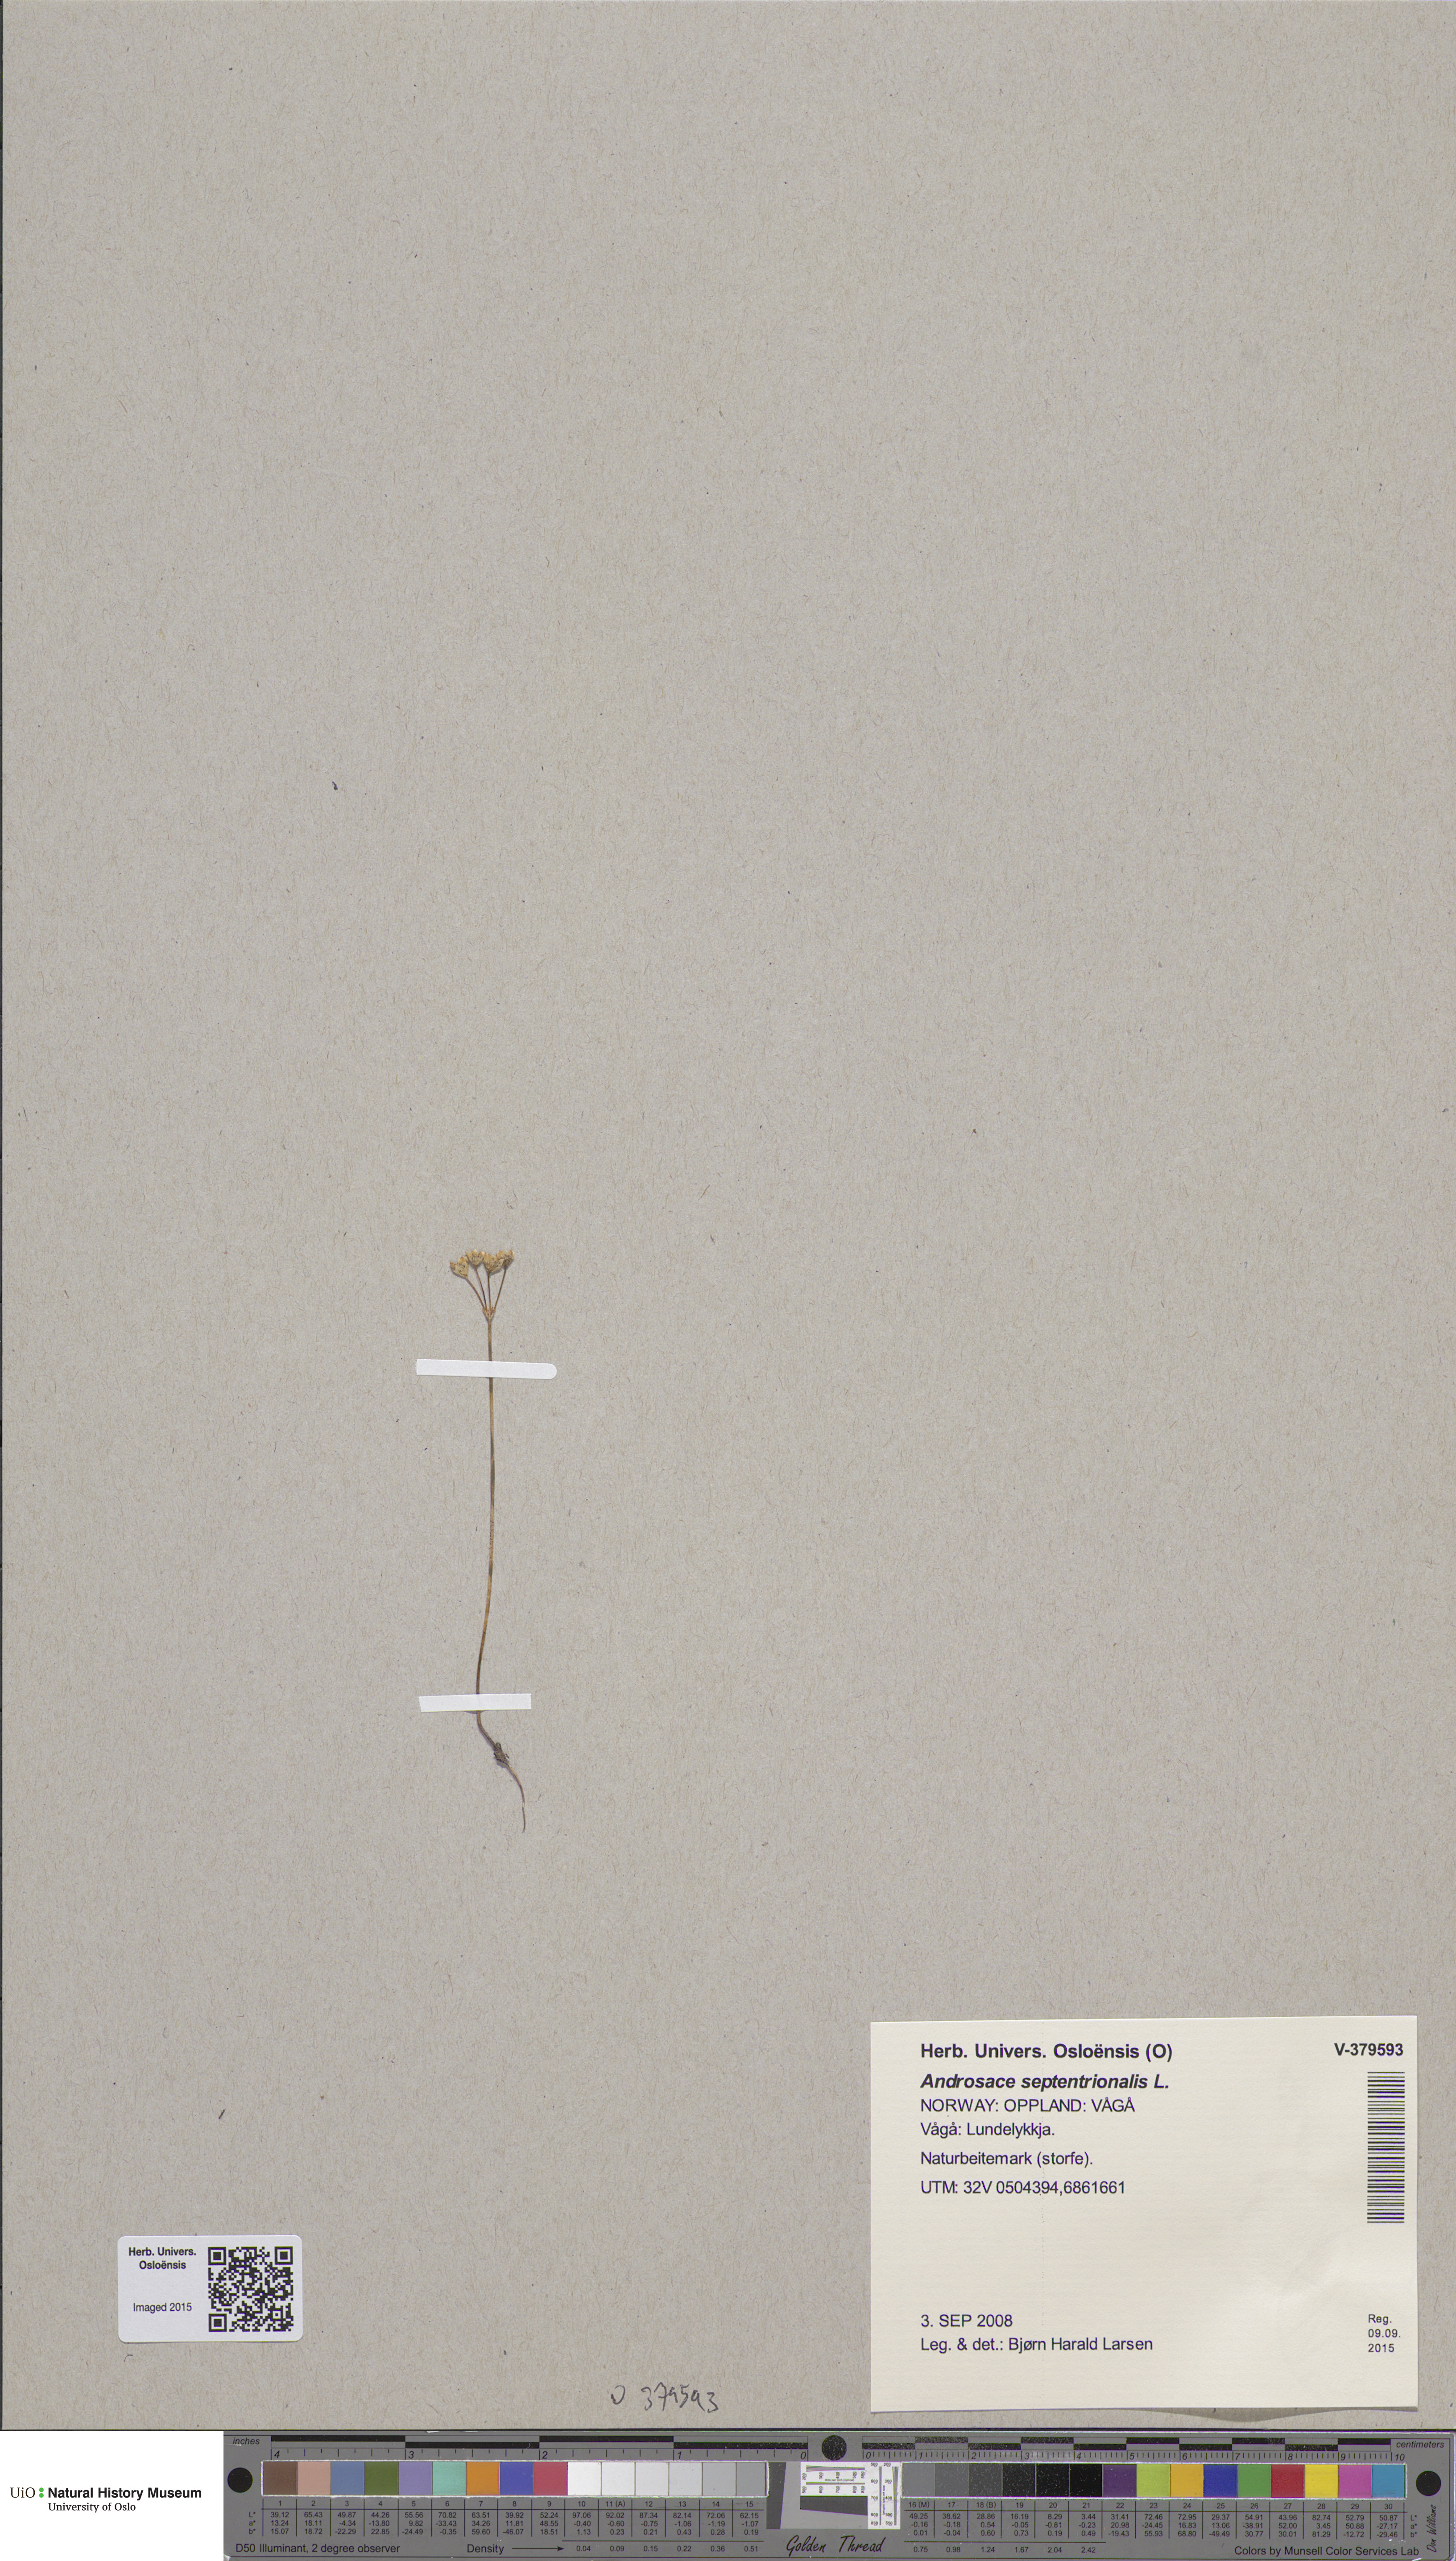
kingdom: Plantae
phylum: Tracheophyta
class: Magnoliopsida
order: Ericales
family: Primulaceae
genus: Androsace
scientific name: Androsace septentrionalis
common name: Hairy northern fairy-candelabra
